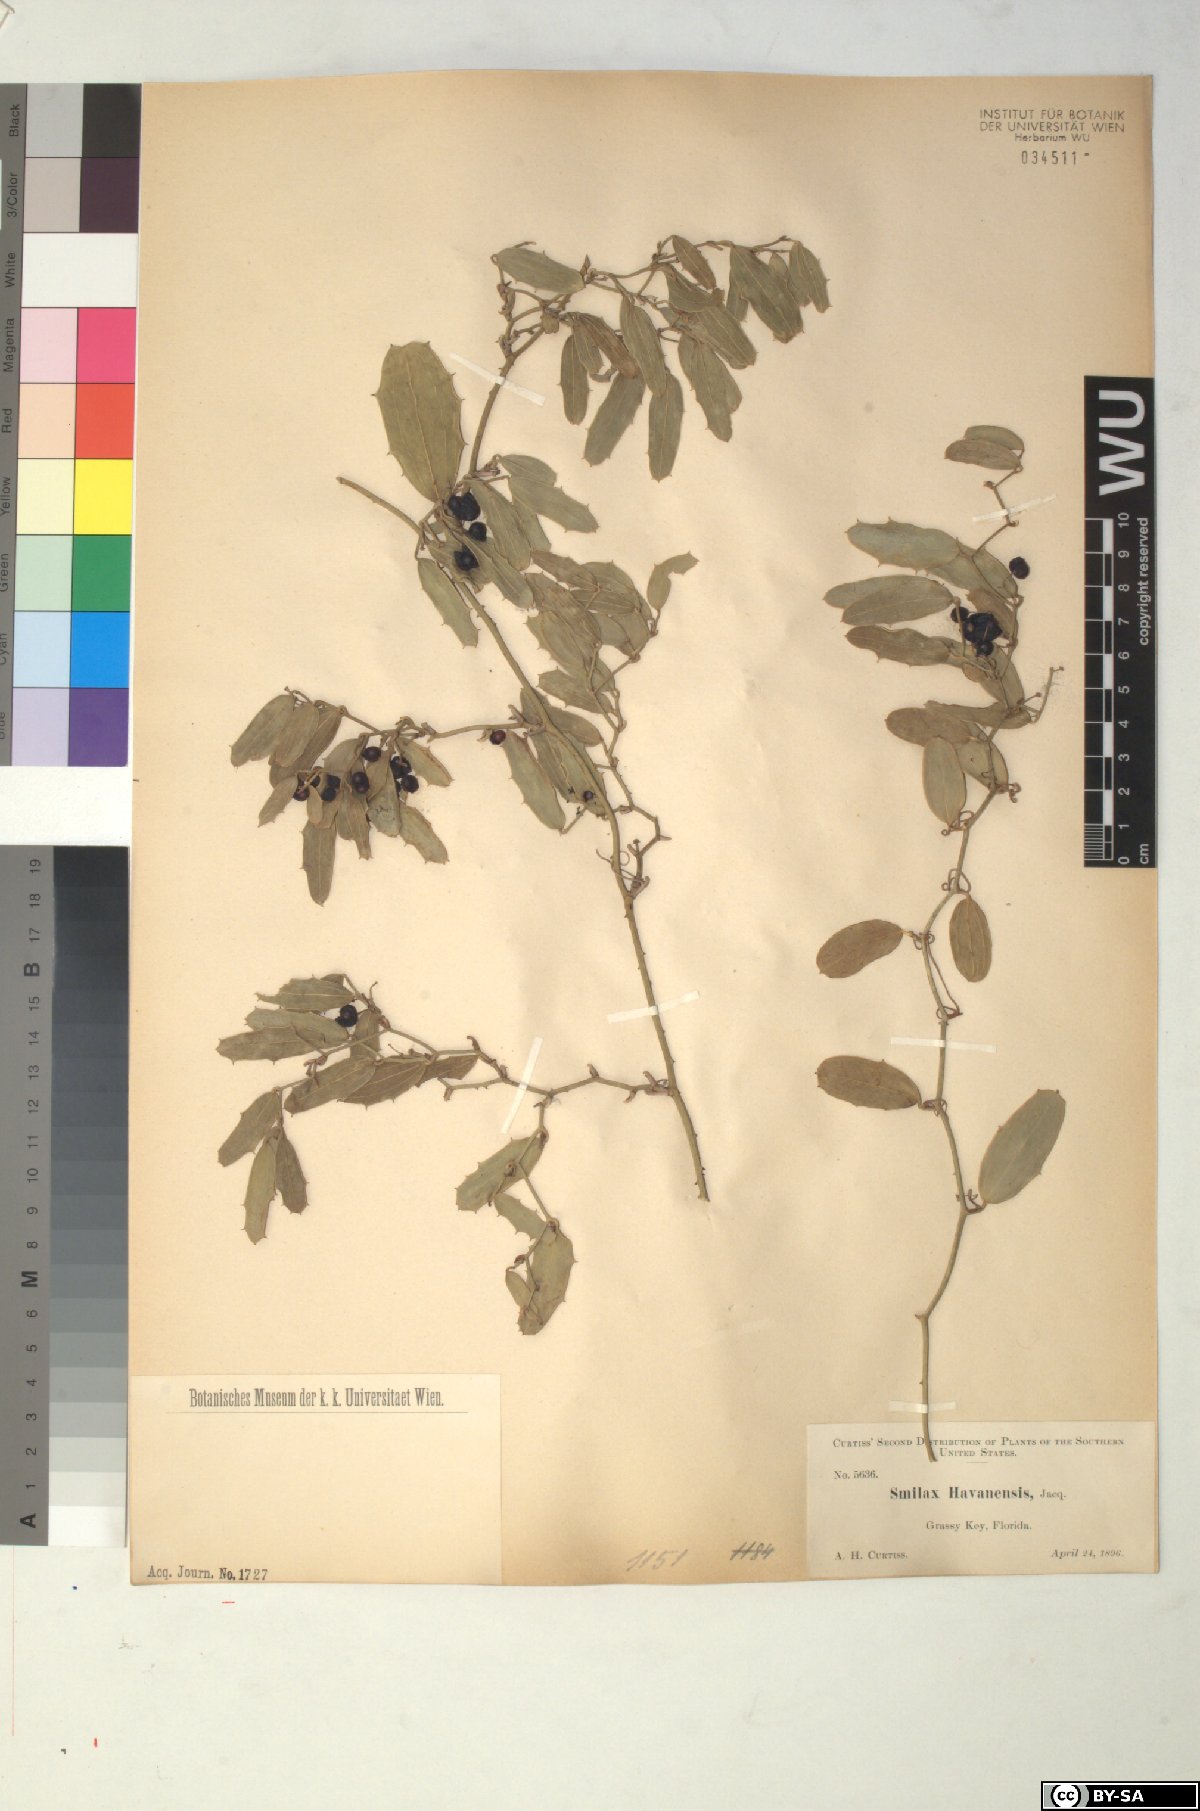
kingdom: Plantae
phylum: Tracheophyta
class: Liliopsida
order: Liliales
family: Smilacaceae
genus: Smilax
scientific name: Smilax havanensis
